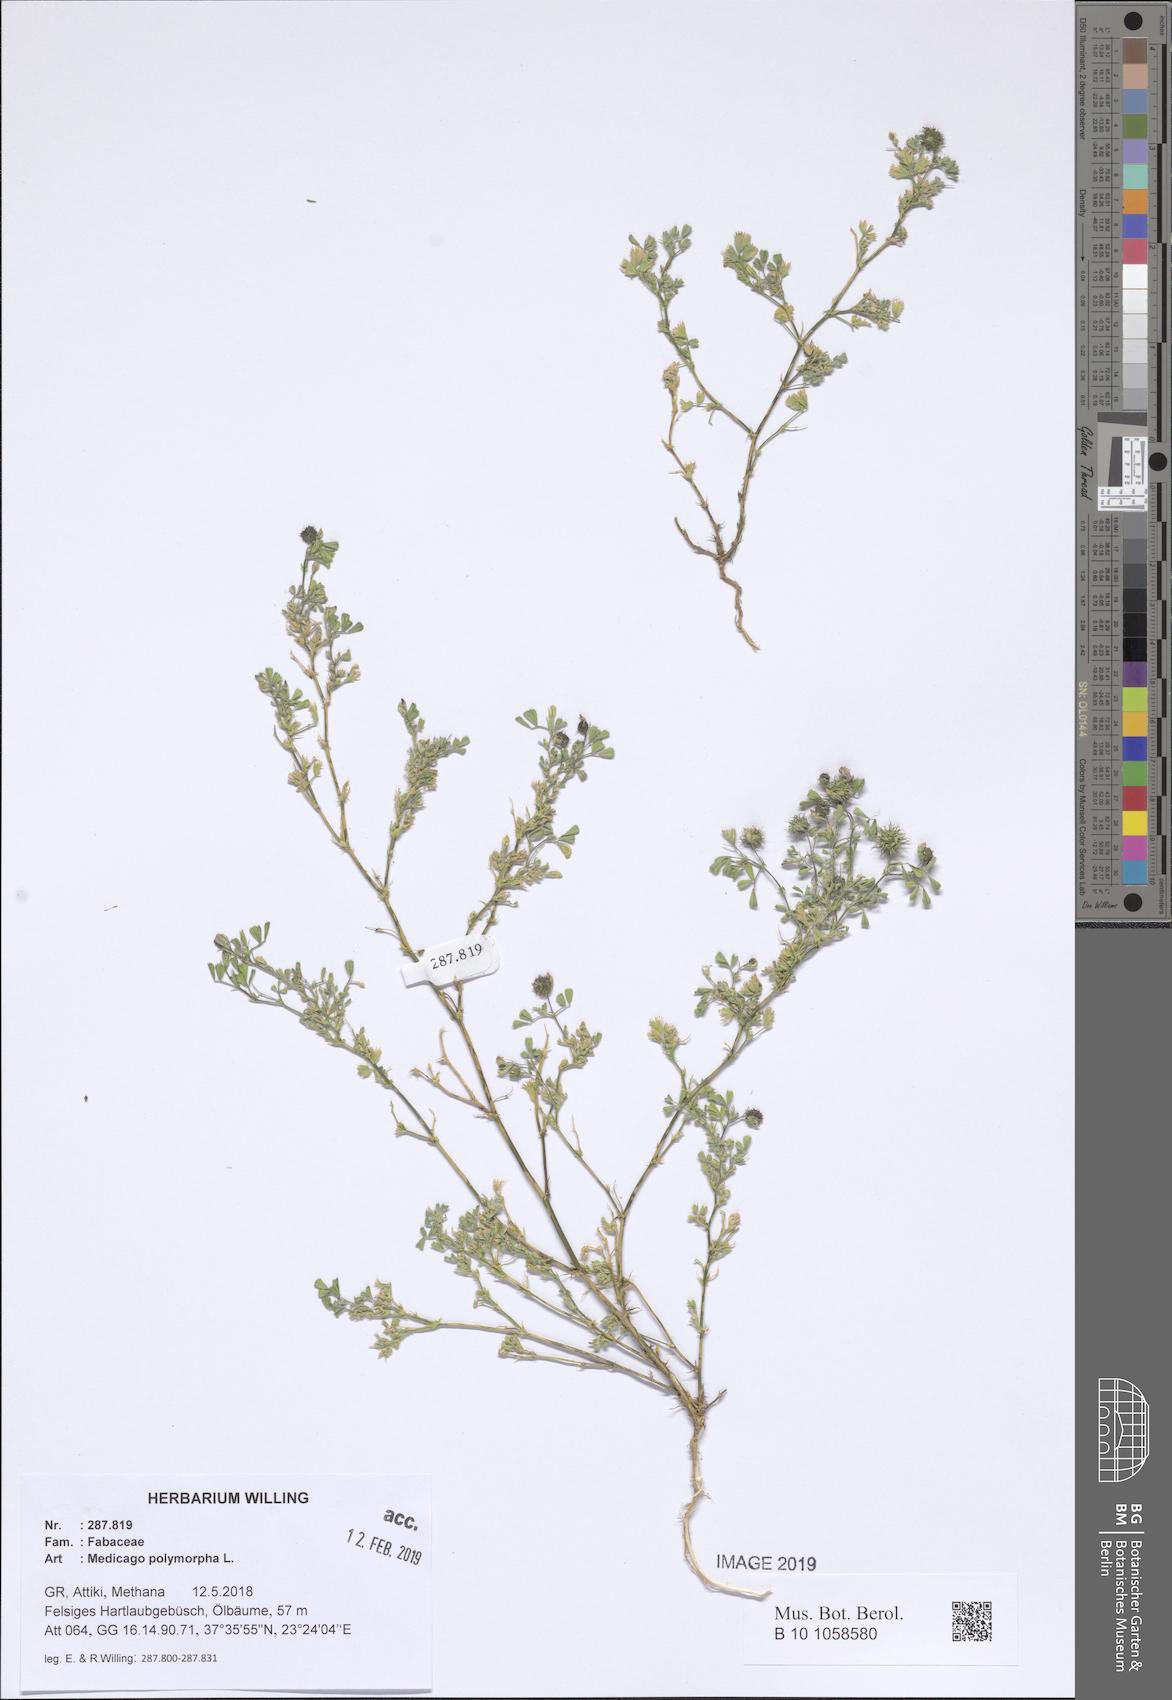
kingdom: Plantae
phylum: Tracheophyta
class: Magnoliopsida
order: Fabales
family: Fabaceae
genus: Medicago
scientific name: Medicago polymorpha
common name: Burclover
